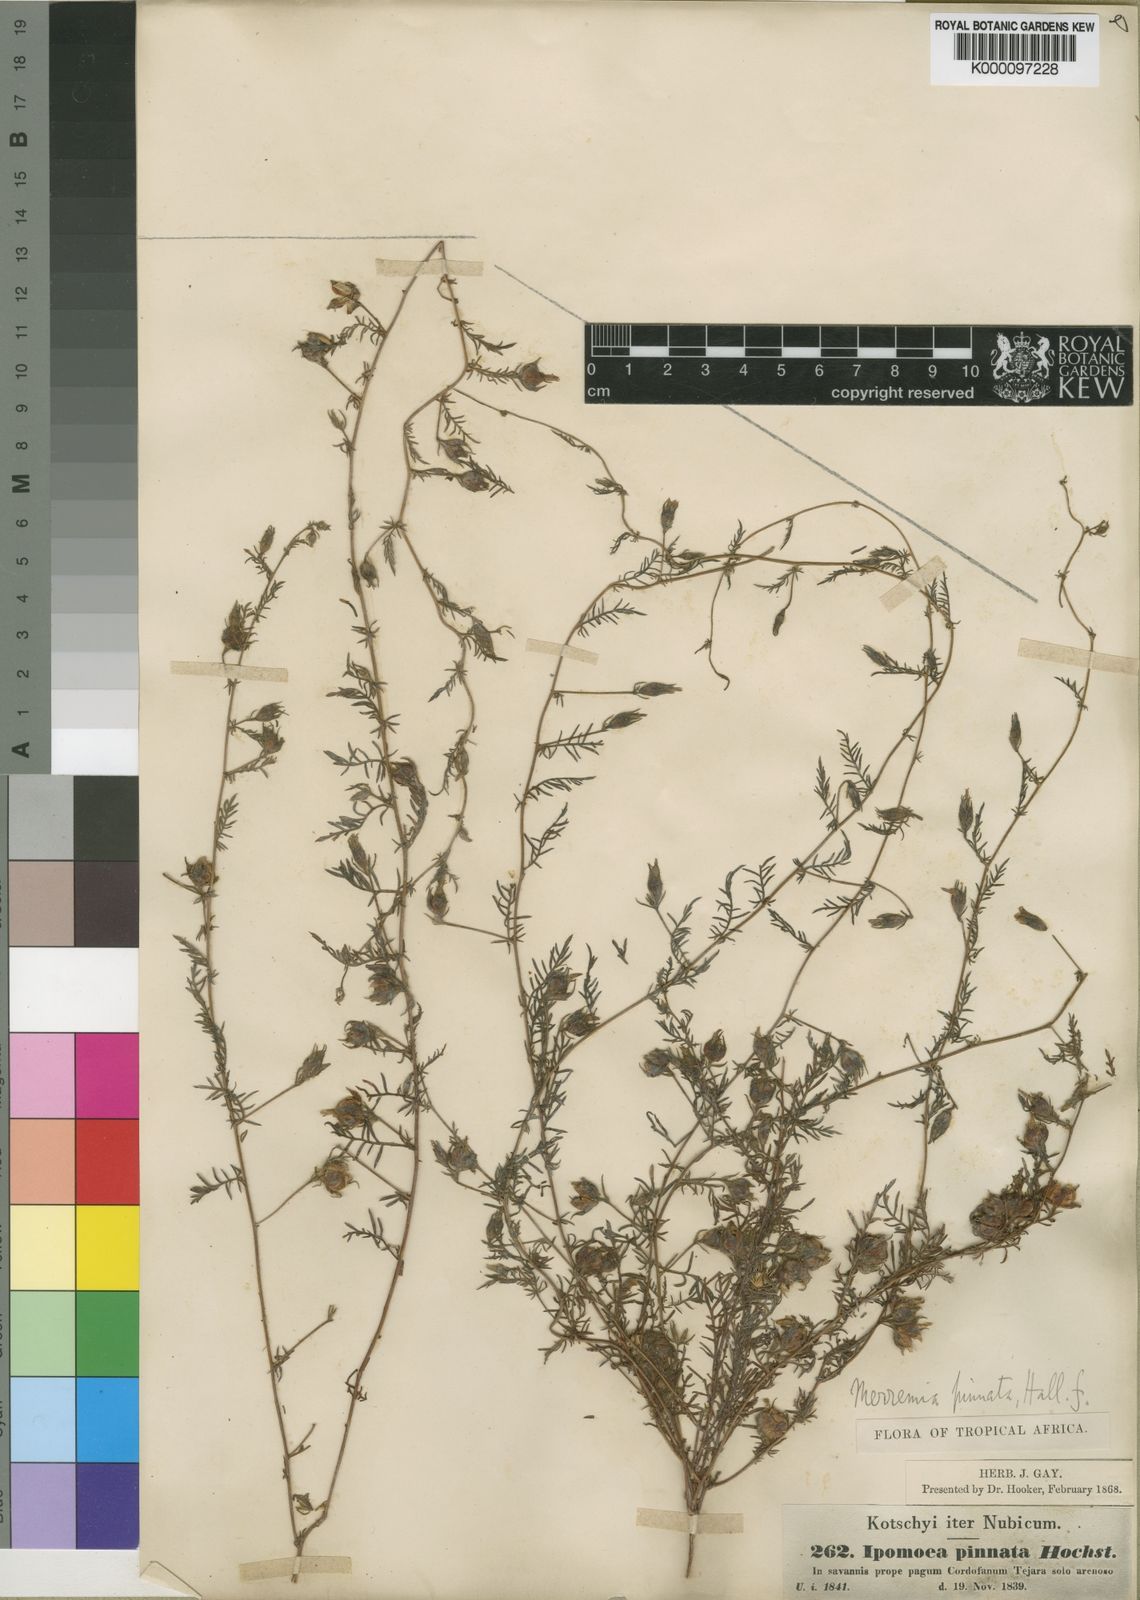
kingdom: Plantae
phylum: Tracheophyta
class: Magnoliopsida
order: Solanales
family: Convolvulaceae
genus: Xenostegia
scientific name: Xenostegia
